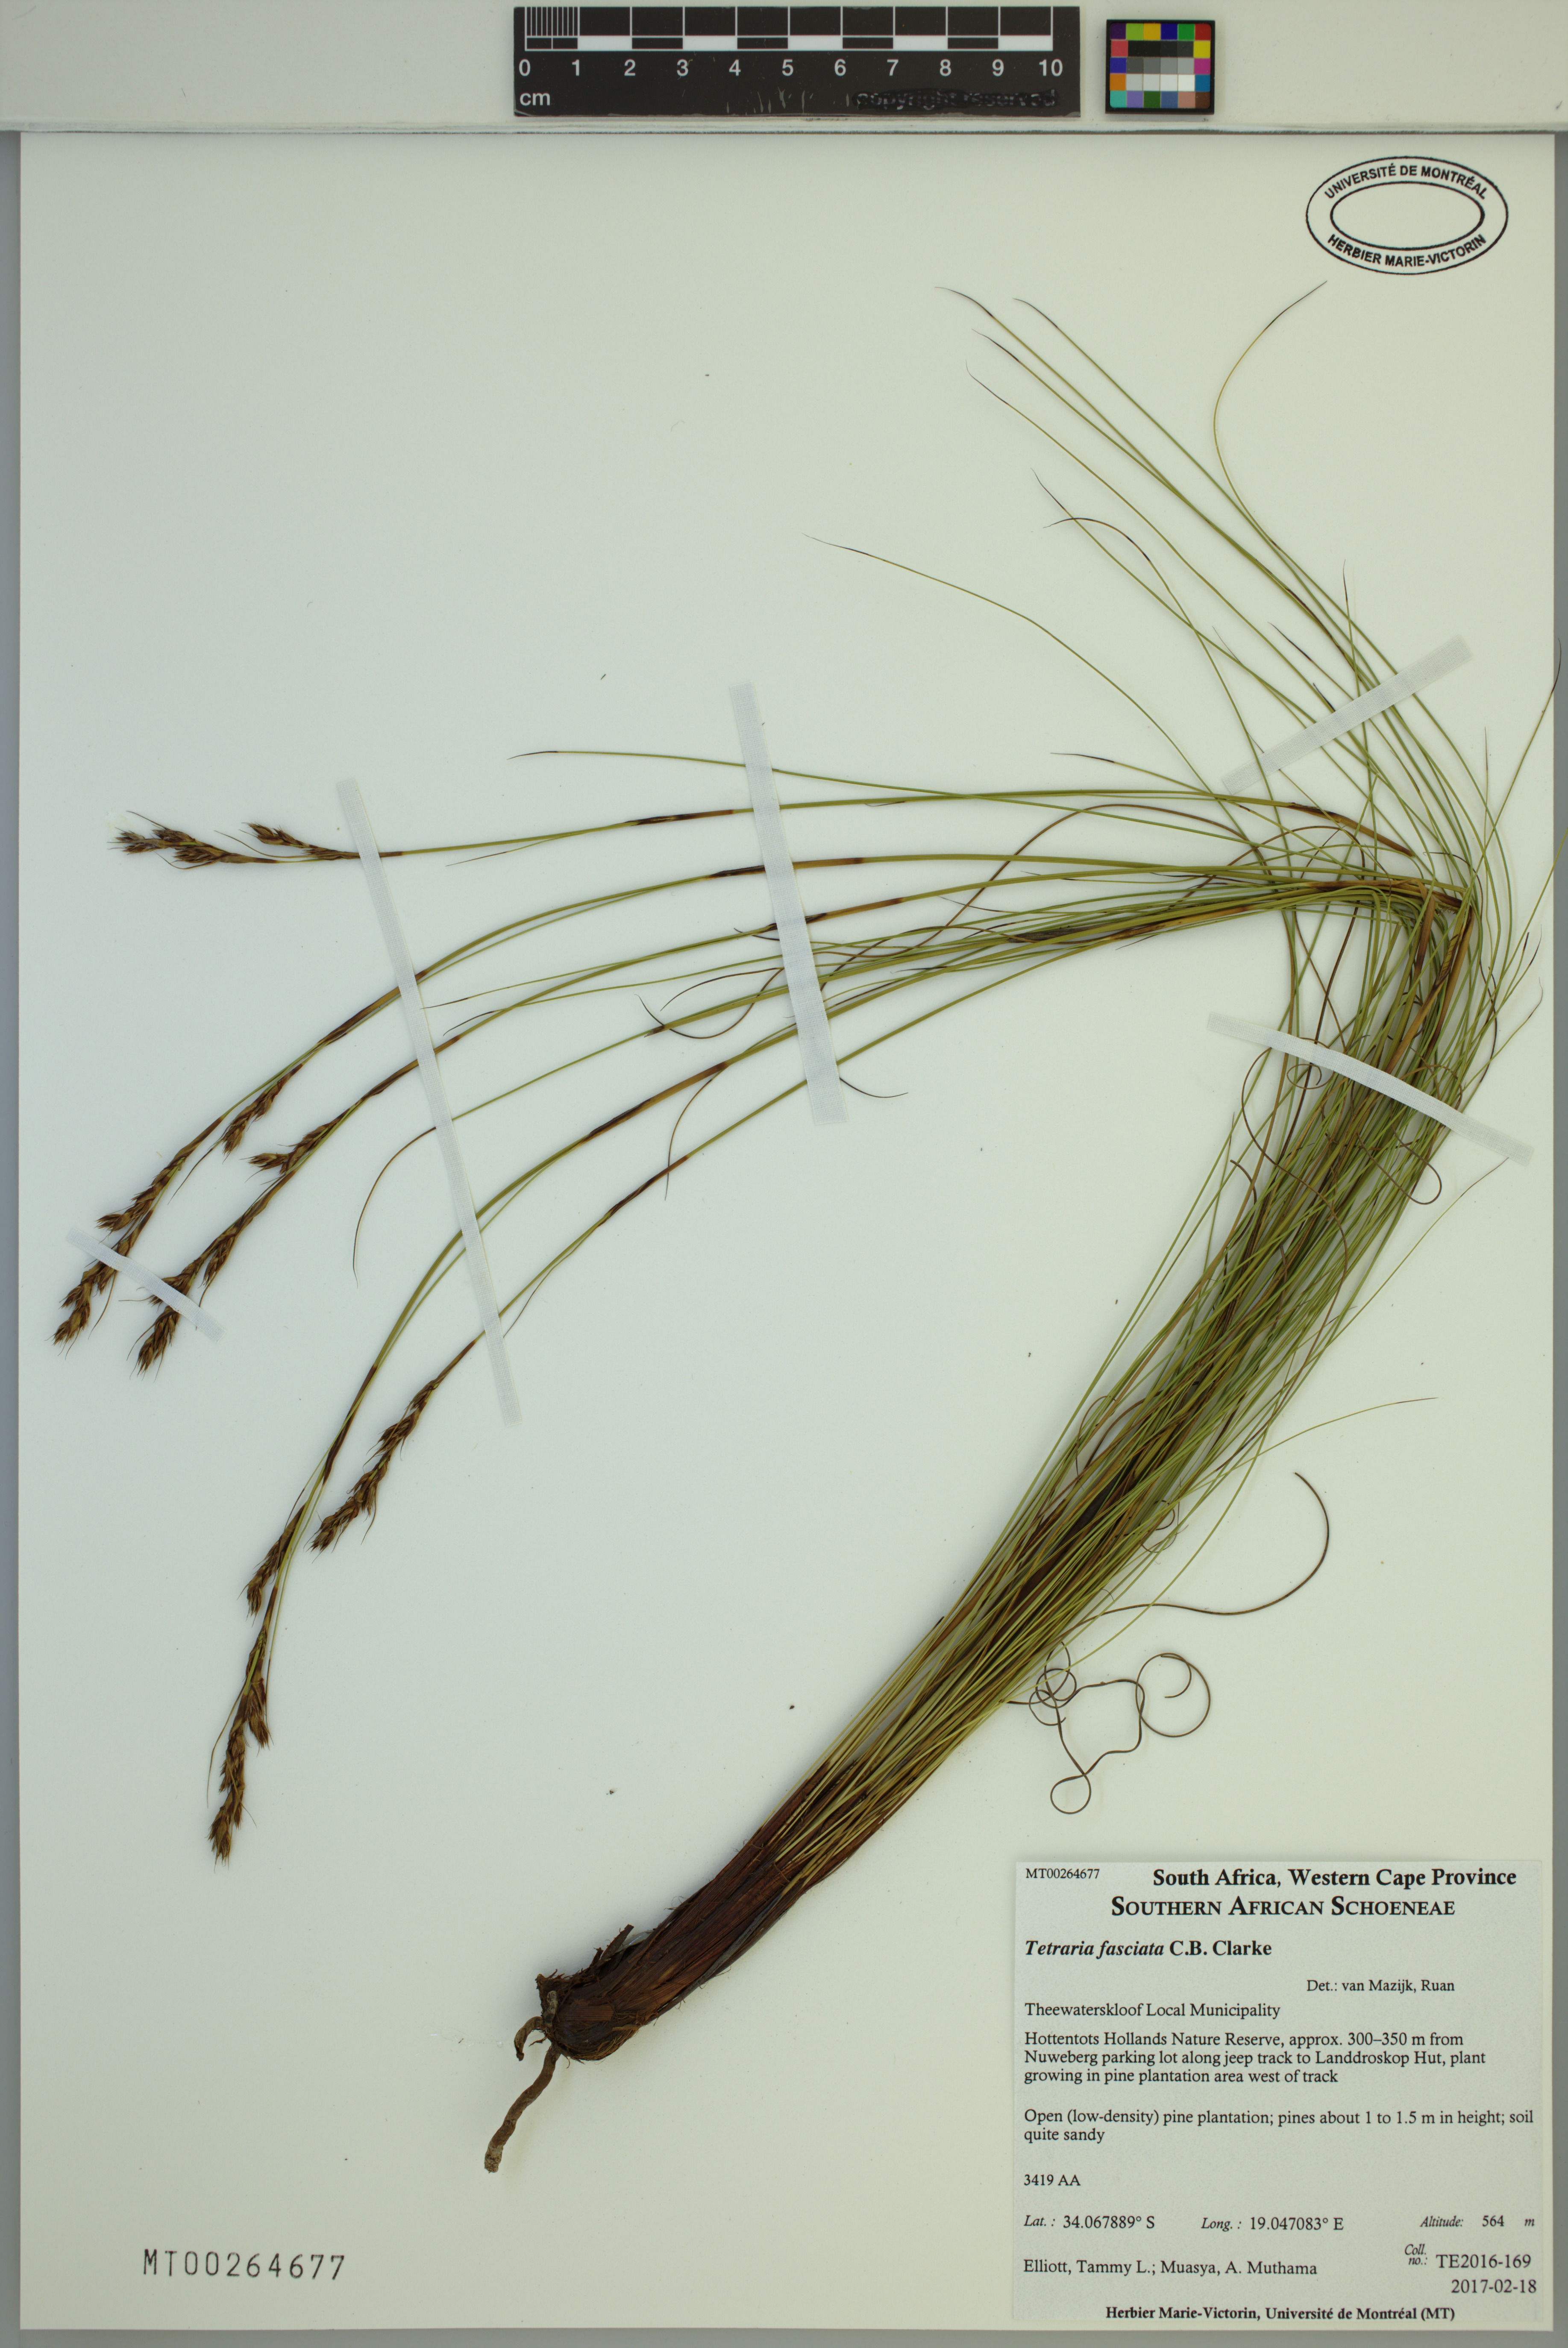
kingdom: Plantae
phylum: Tracheophyta
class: Liliopsida
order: Poales
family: Cyperaceae
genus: Tetraria
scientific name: Tetraria fasciata
